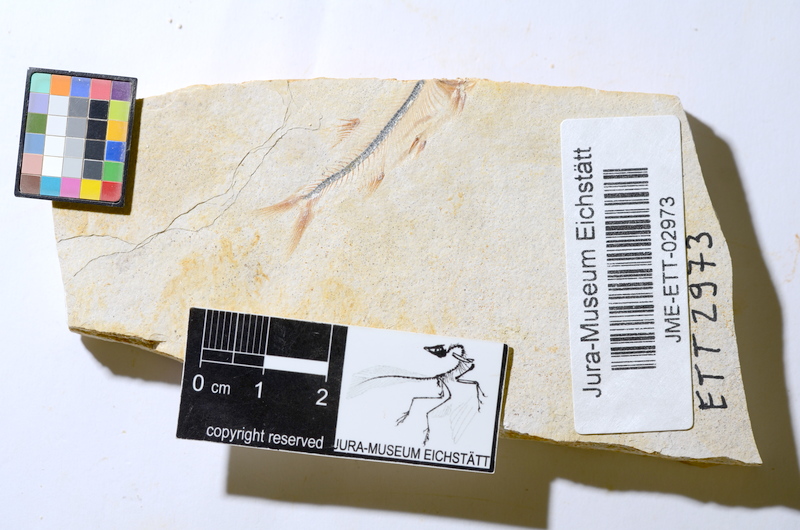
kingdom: Animalia
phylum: Chordata
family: Ascalaboidae
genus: Ebertichthys
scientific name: Ebertichthys ettlingensis
